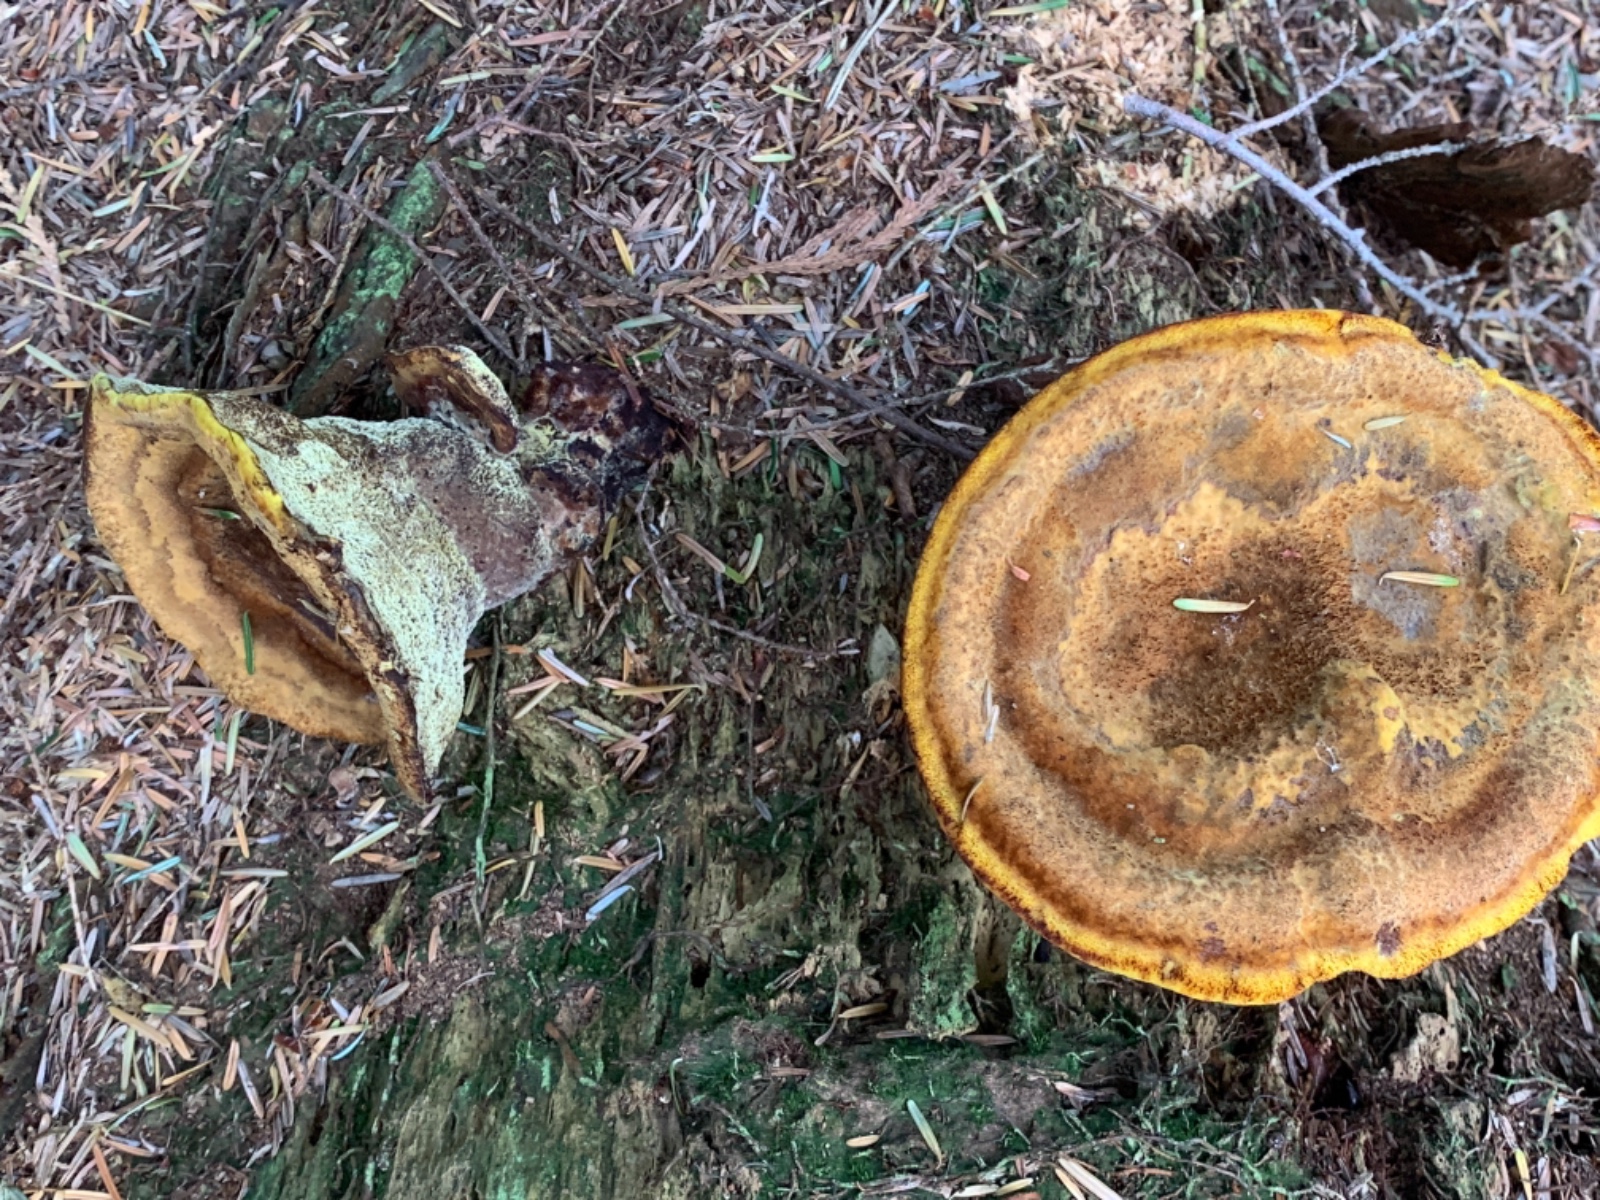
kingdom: Fungi
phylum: Basidiomycota
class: Agaricomycetes
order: Polyporales
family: Laetiporaceae
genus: Phaeolus
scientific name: Phaeolus schweinitzii
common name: brunporesvamp
